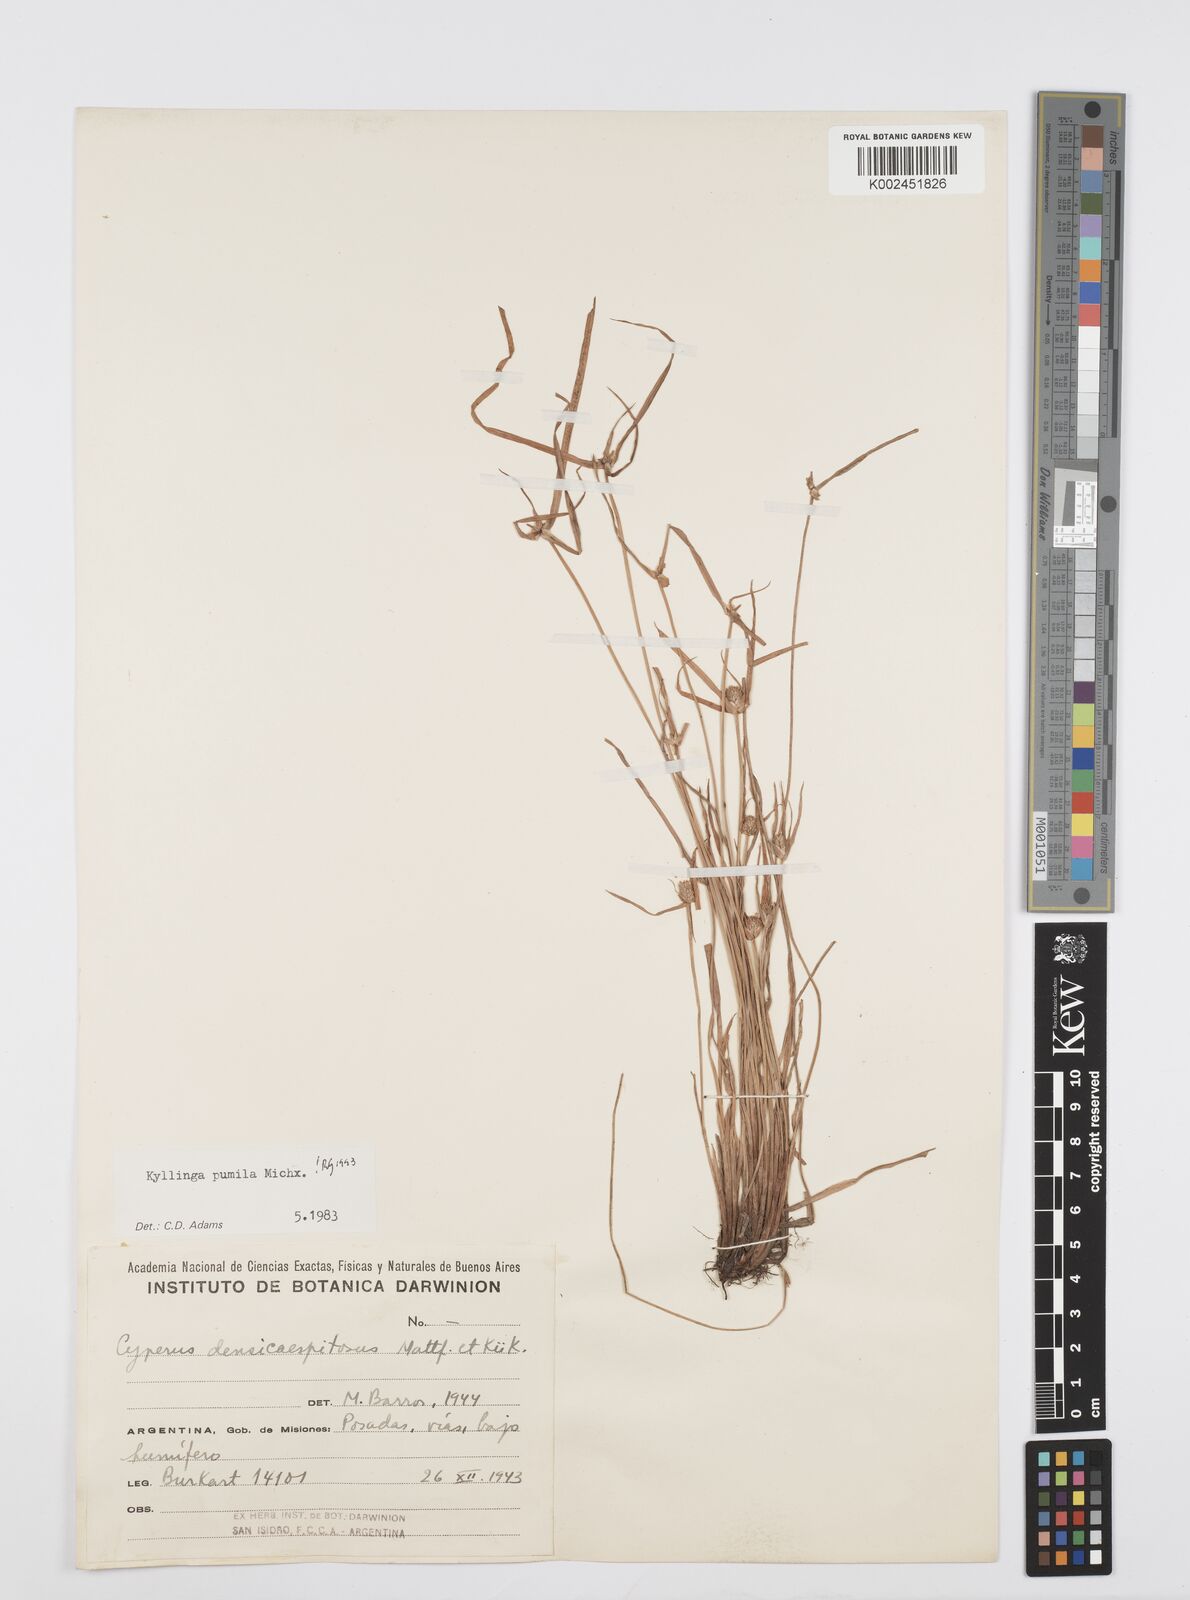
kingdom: Plantae
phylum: Tracheophyta
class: Liliopsida
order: Poales
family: Cyperaceae
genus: Cyperus
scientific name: Cyperus pumilus
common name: Low flatsedge
